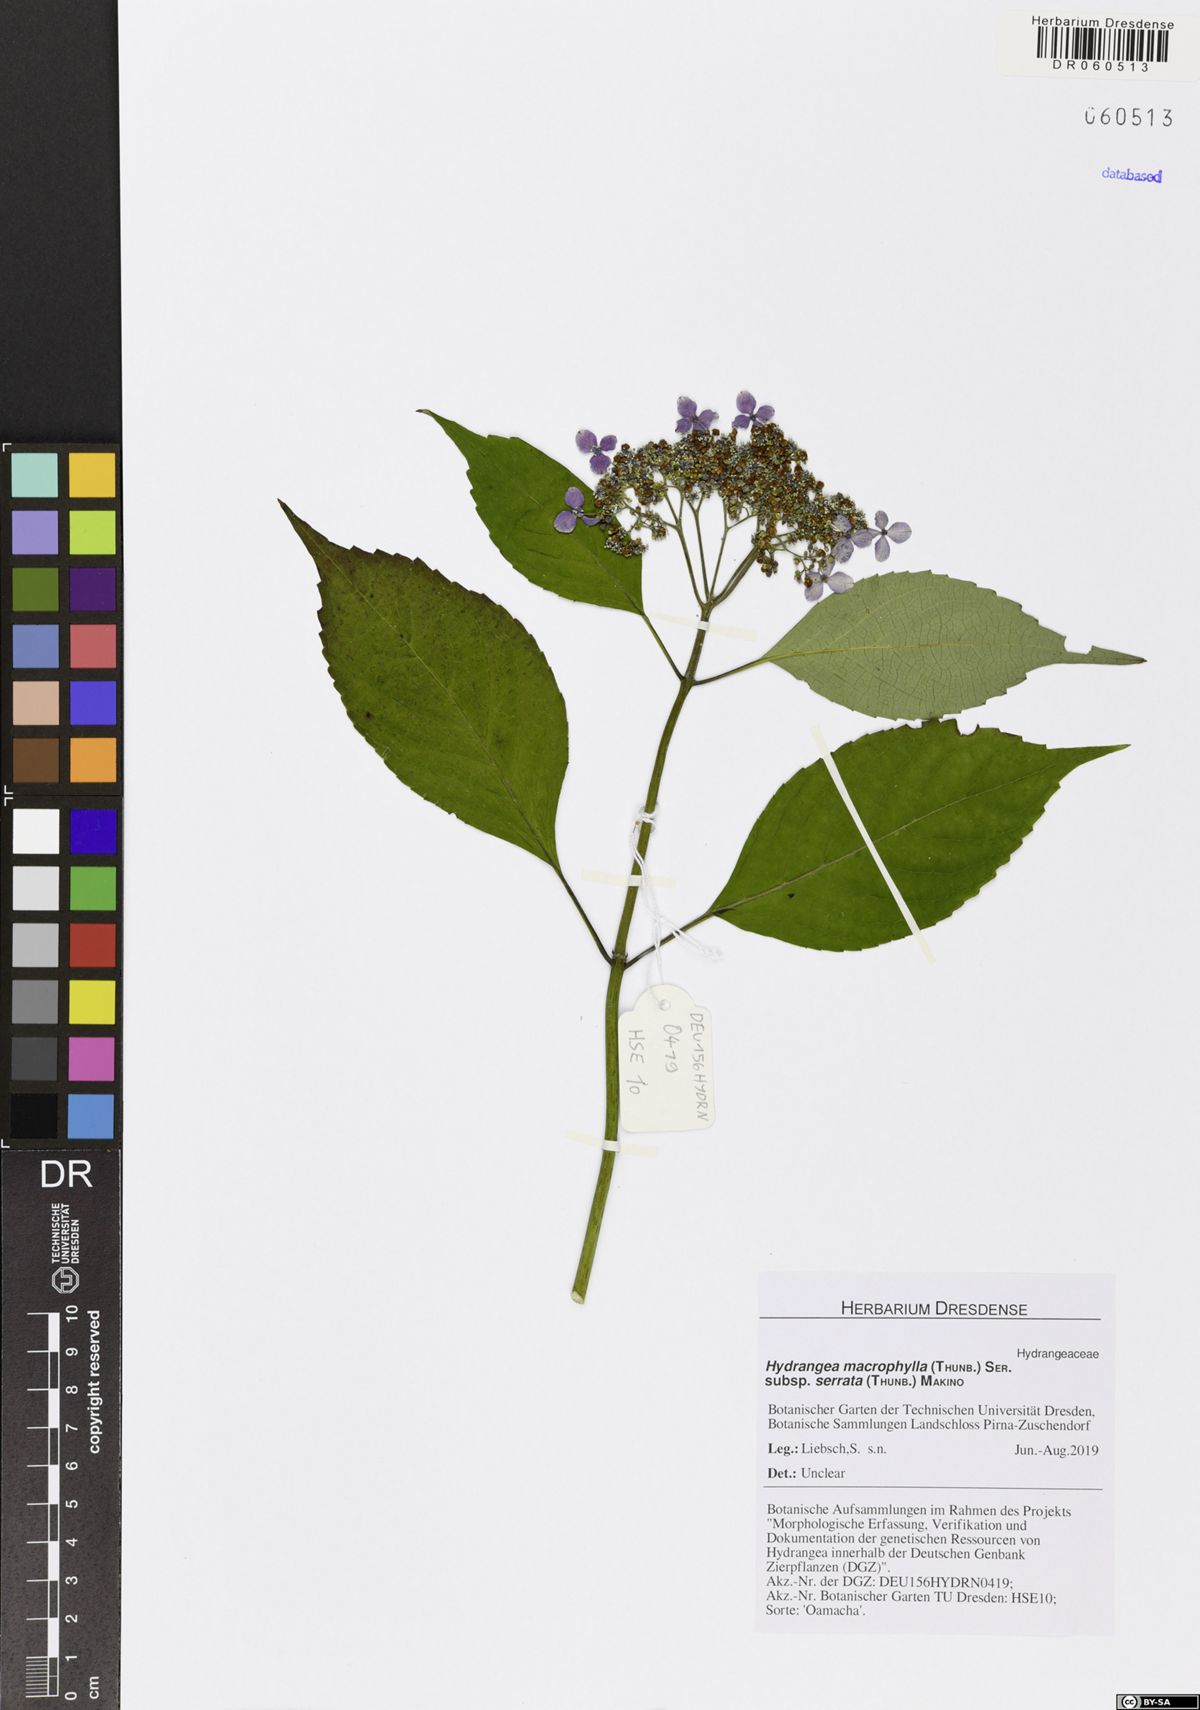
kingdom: Plantae
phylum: Tracheophyta
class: Magnoliopsida
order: Cornales
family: Hydrangeaceae
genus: Hydrangea
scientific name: Hydrangea serrata
